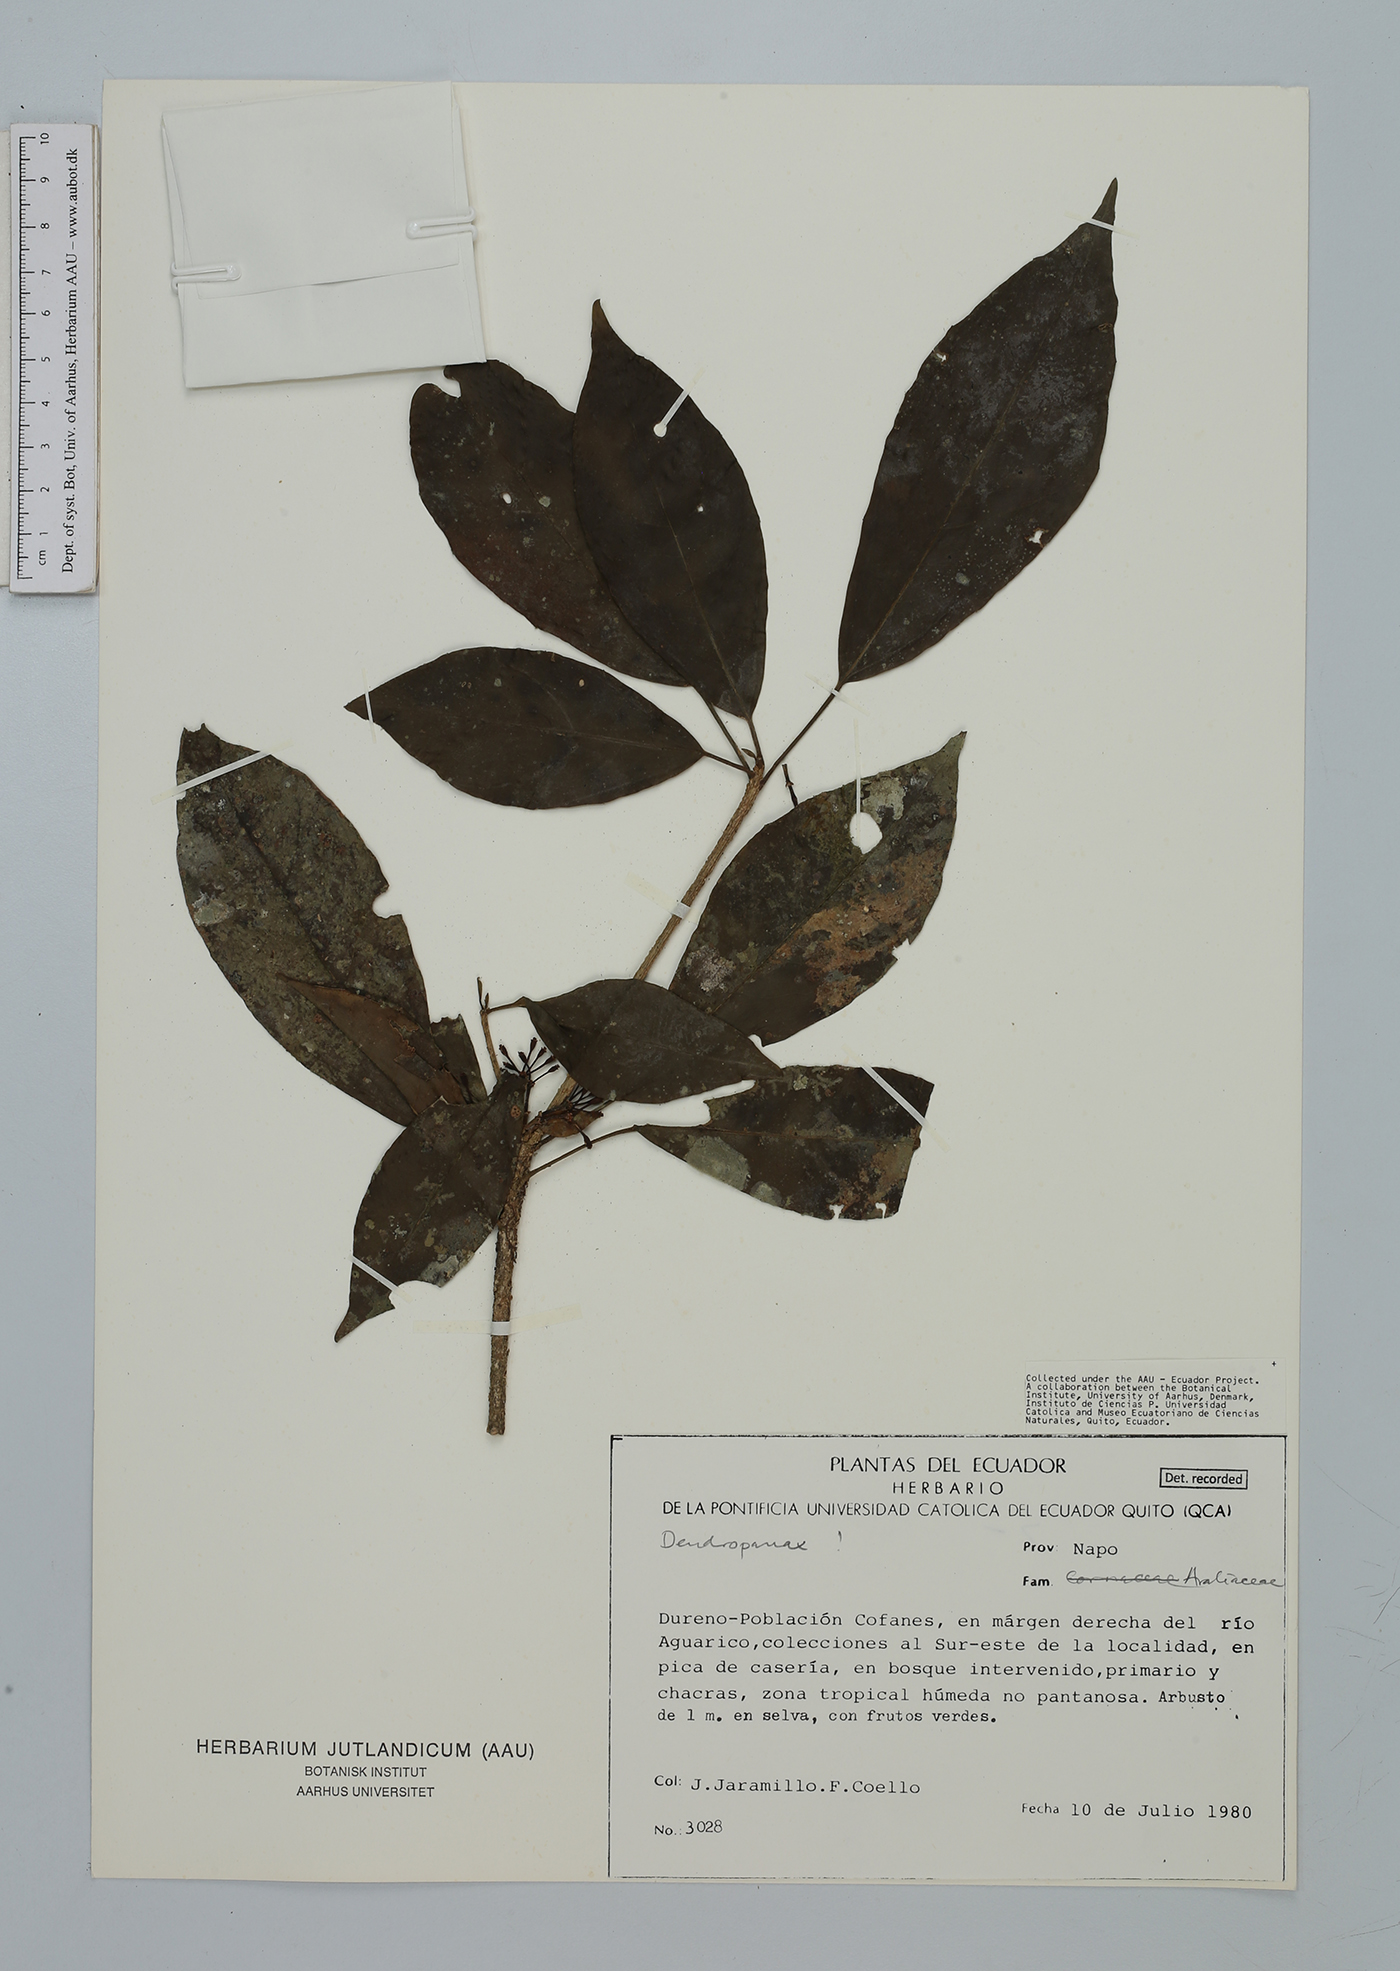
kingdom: Plantae
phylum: Tracheophyta
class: Magnoliopsida
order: Apiales
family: Araliaceae
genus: Dendropanax
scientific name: Dendropanax
